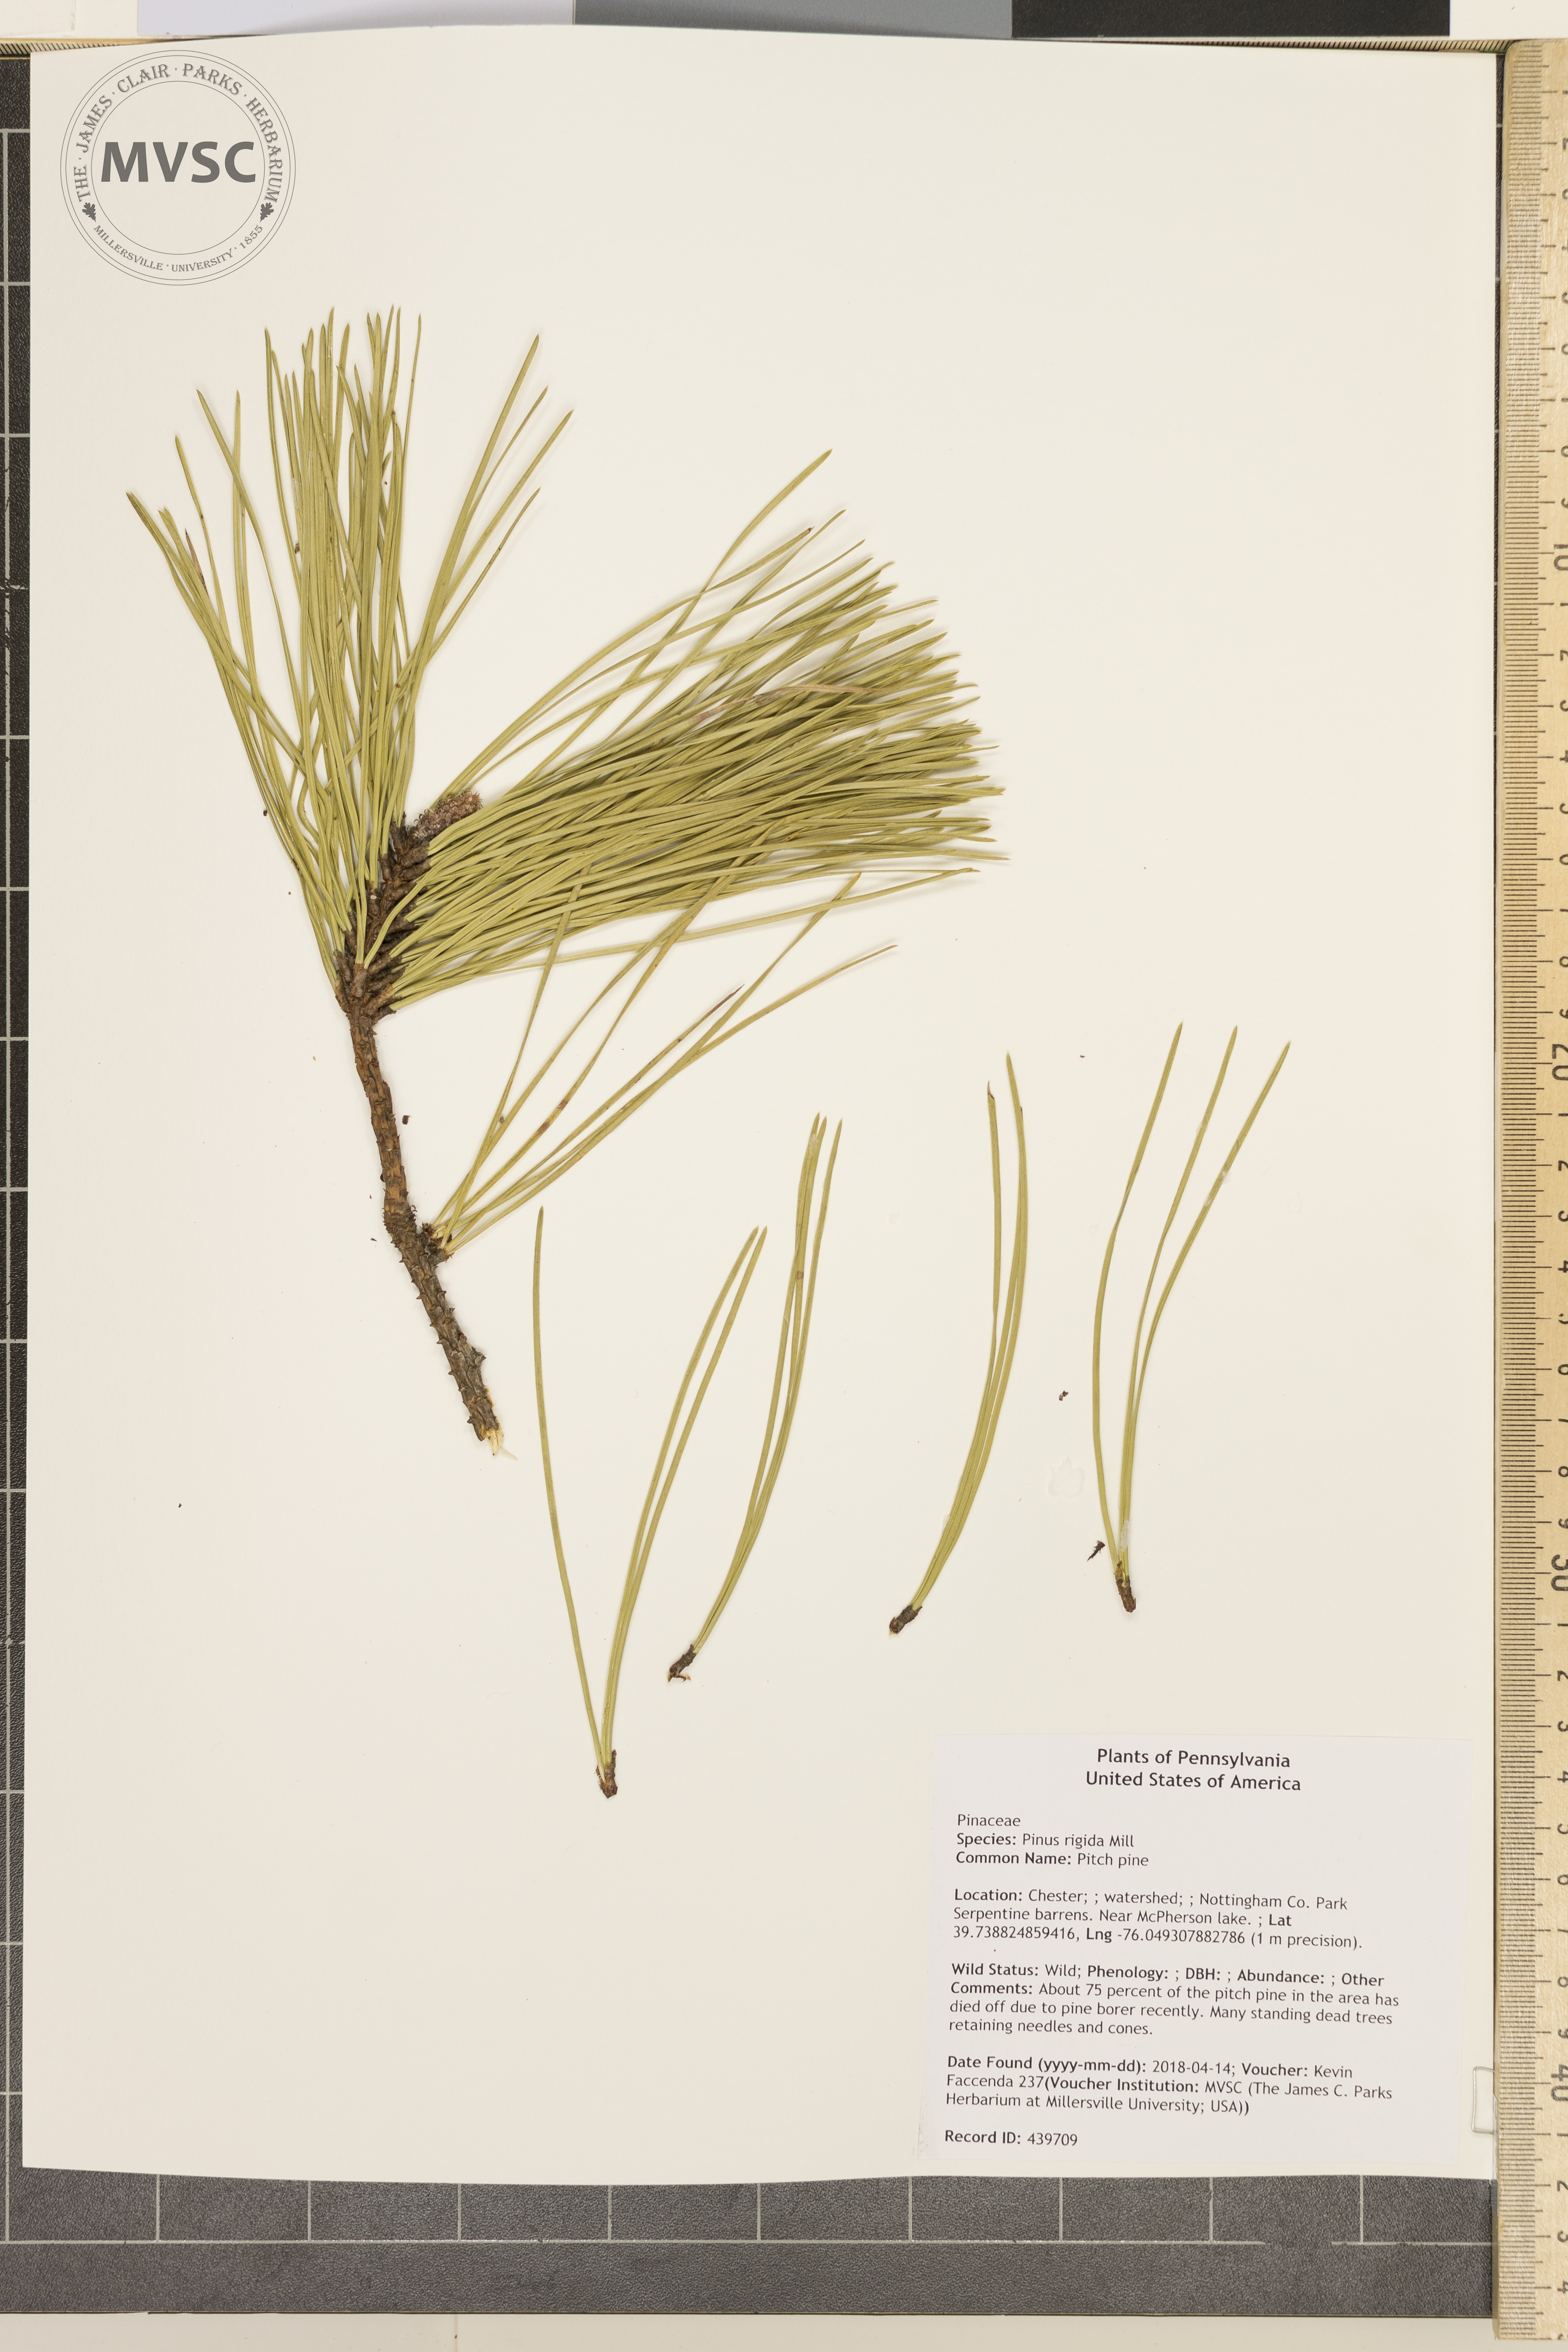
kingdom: Plantae
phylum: Tracheophyta
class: Pinopsida
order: Pinales
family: Pinaceae
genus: Pinus
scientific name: Pinus rigida
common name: Pitch pine
